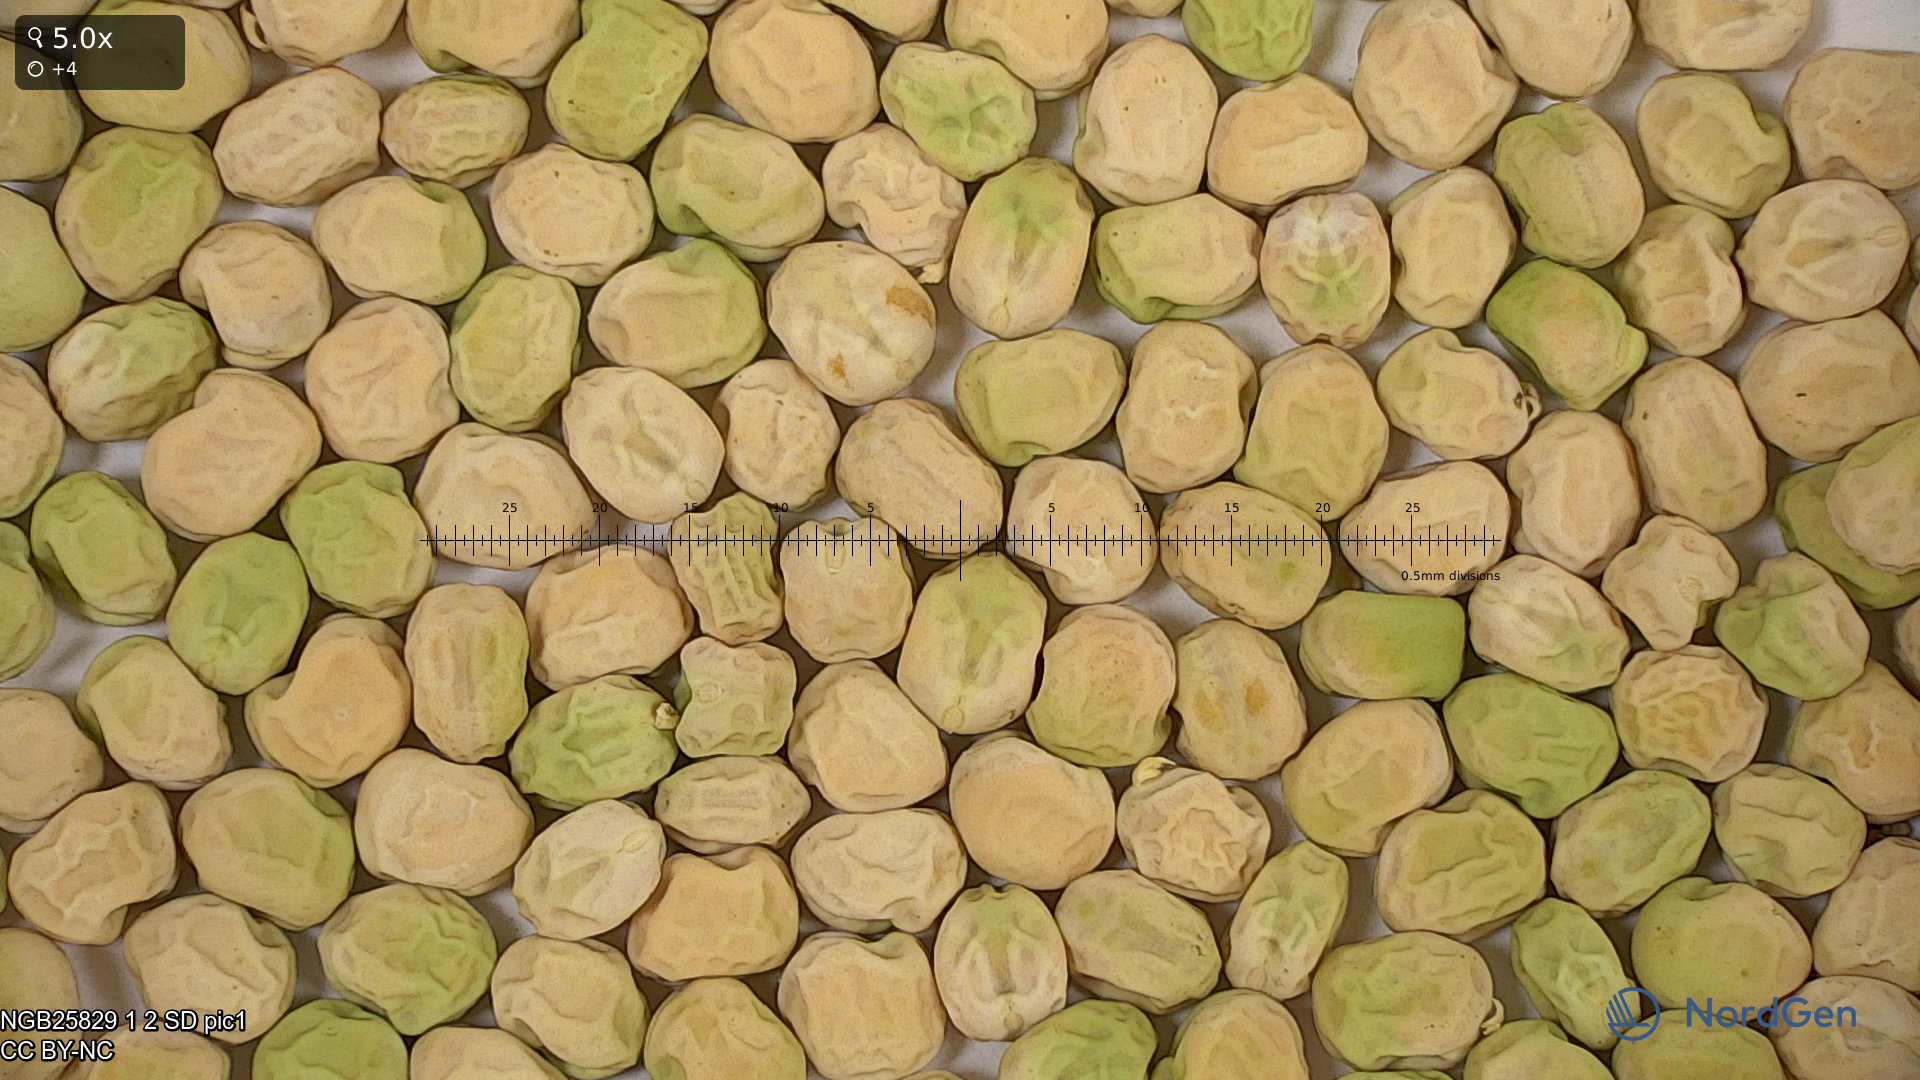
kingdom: Plantae
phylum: Tracheophyta
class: Magnoliopsida
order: Fabales
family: Fabaceae
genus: Lathyrus
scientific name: Lathyrus oleraceus
